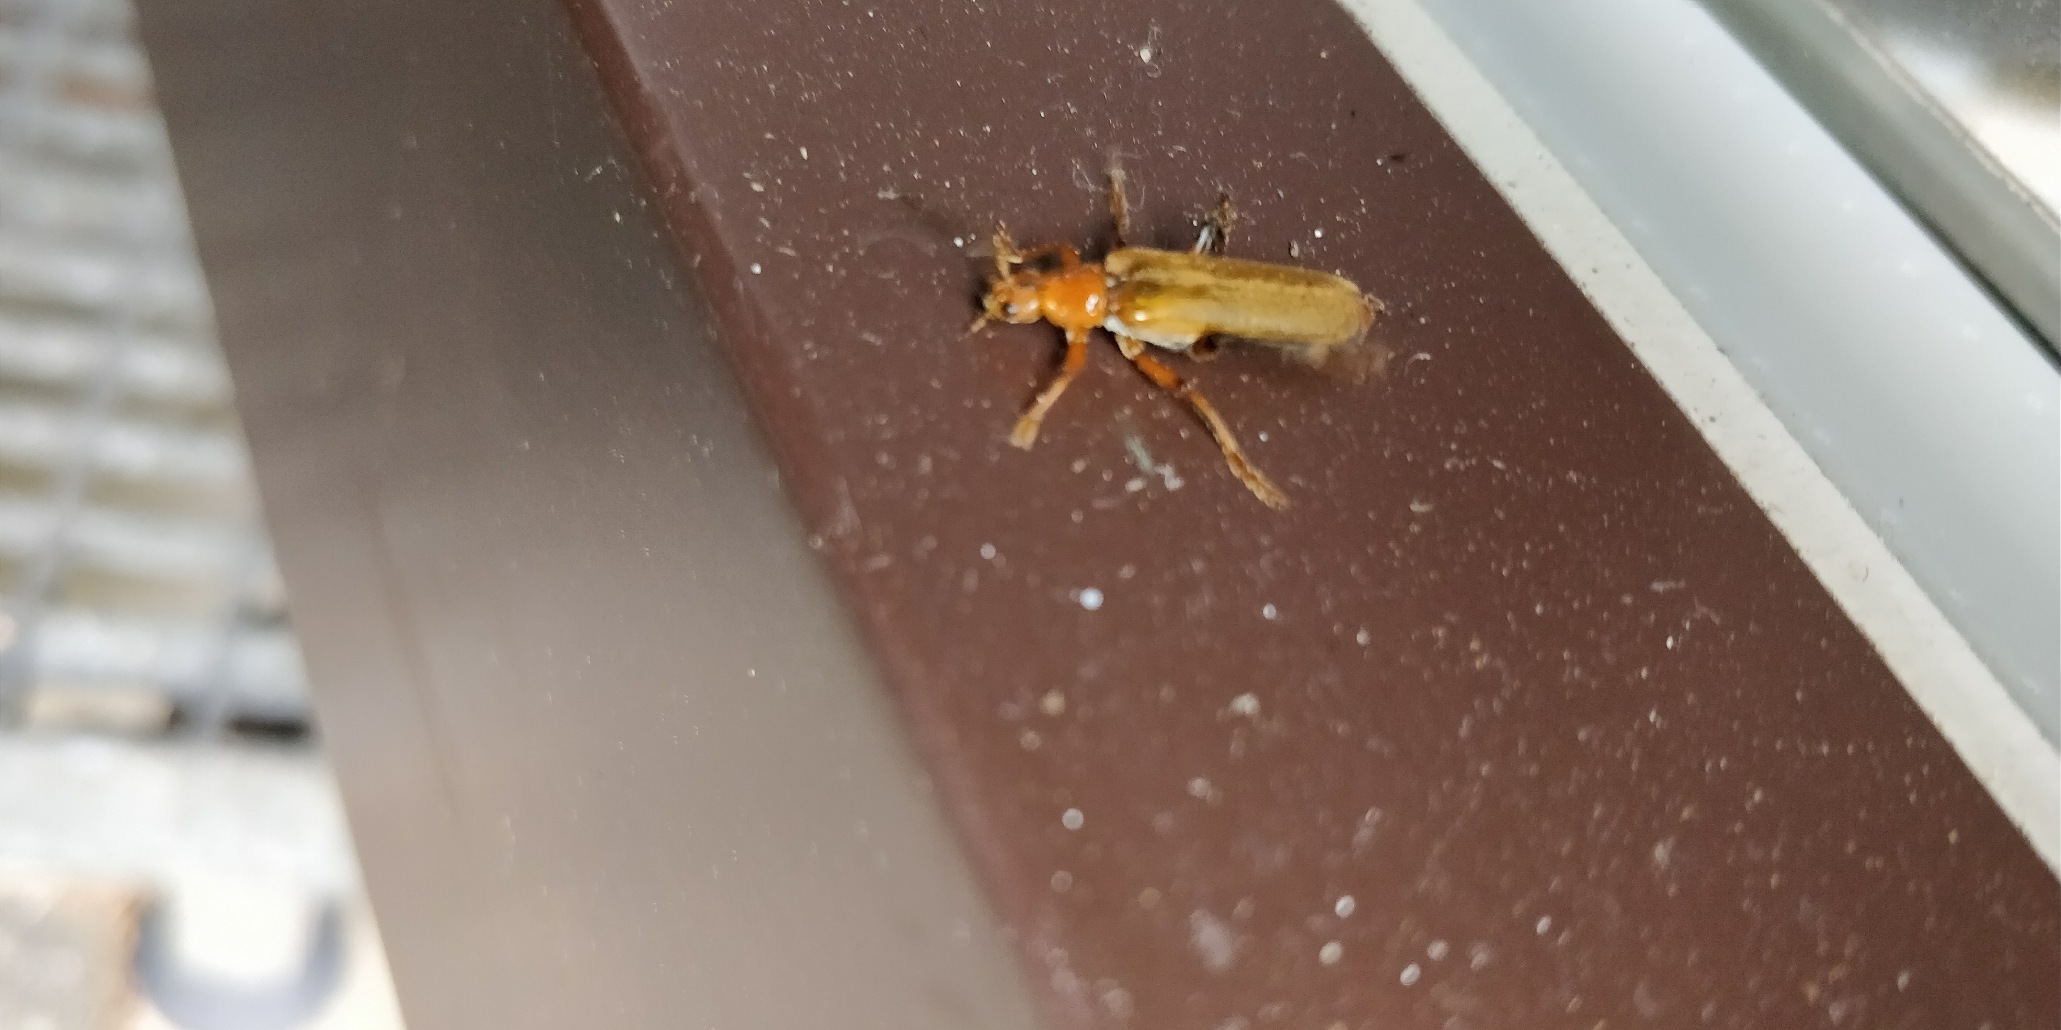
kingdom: Animalia
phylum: Arthropoda
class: Insecta
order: Coleoptera
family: Cantharidae
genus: Cantharis
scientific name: Cantharis livida
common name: Gul blødvinge
